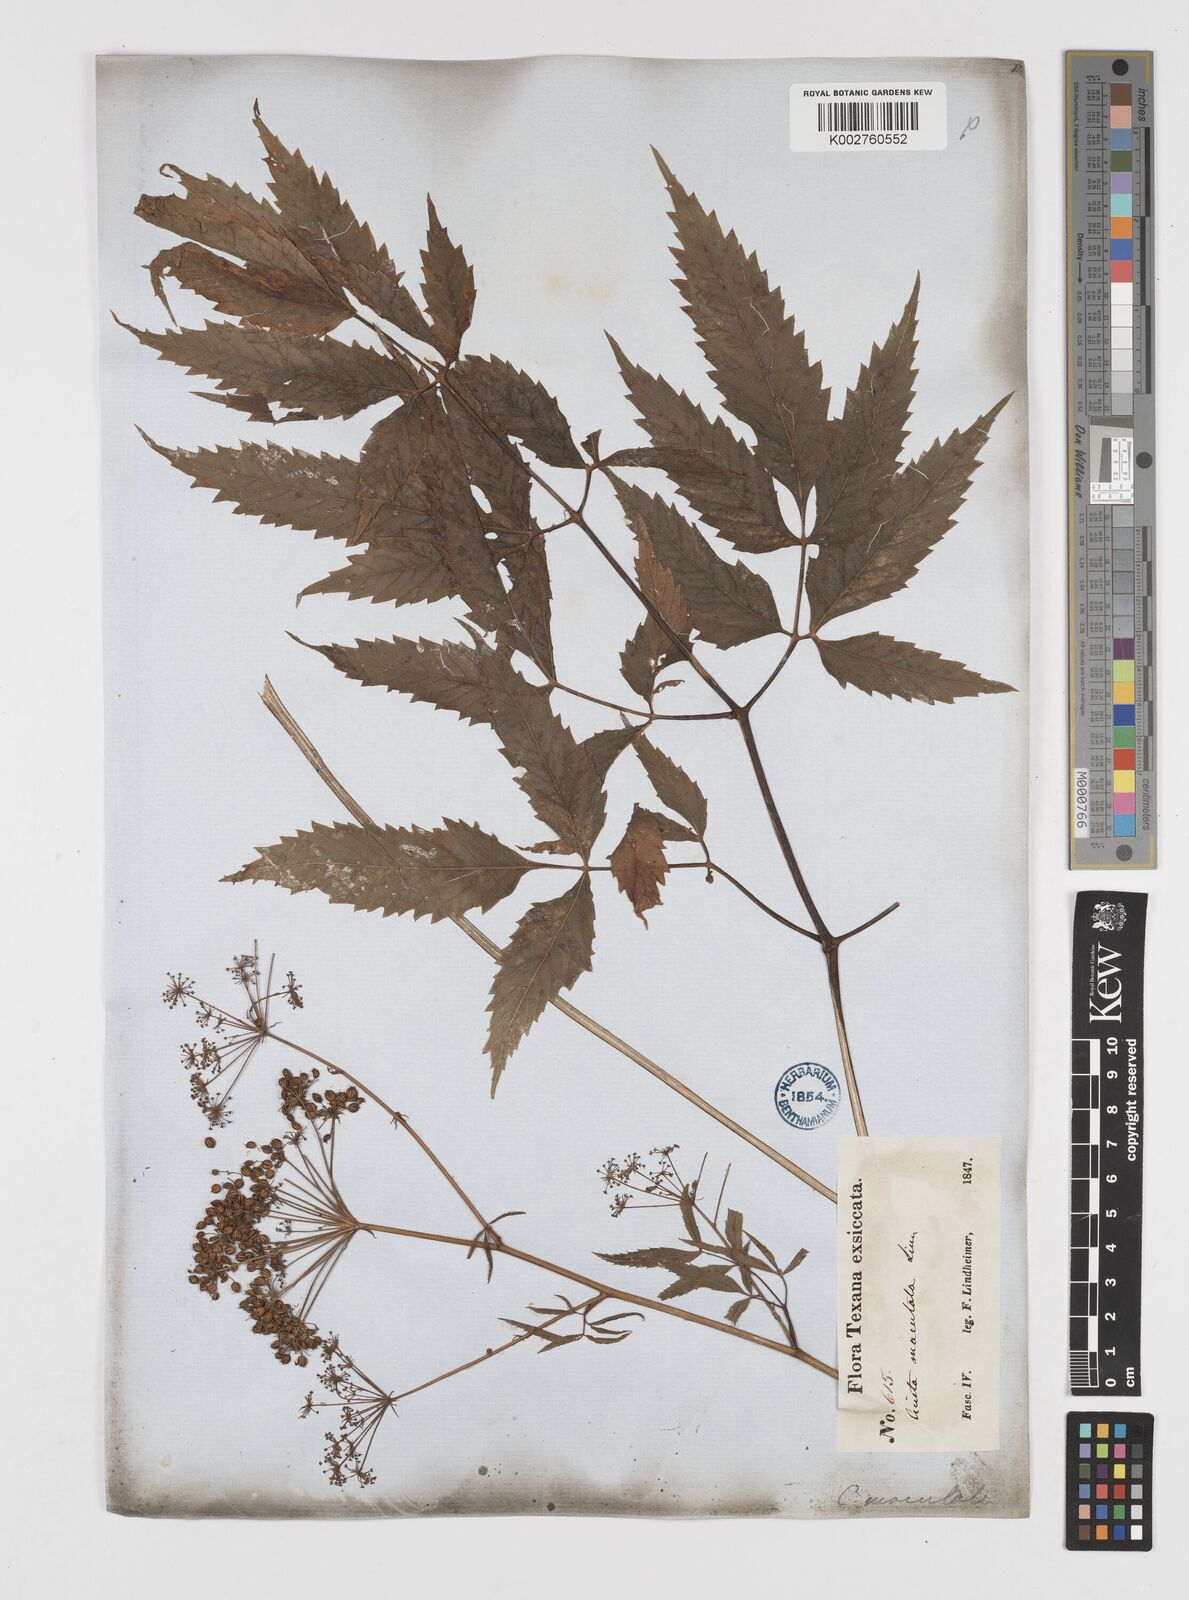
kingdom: Plantae
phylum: Tracheophyta
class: Magnoliopsida
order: Apiales
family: Apiaceae
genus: Cicuta
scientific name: Cicuta douglasii
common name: Western water-hemlock
